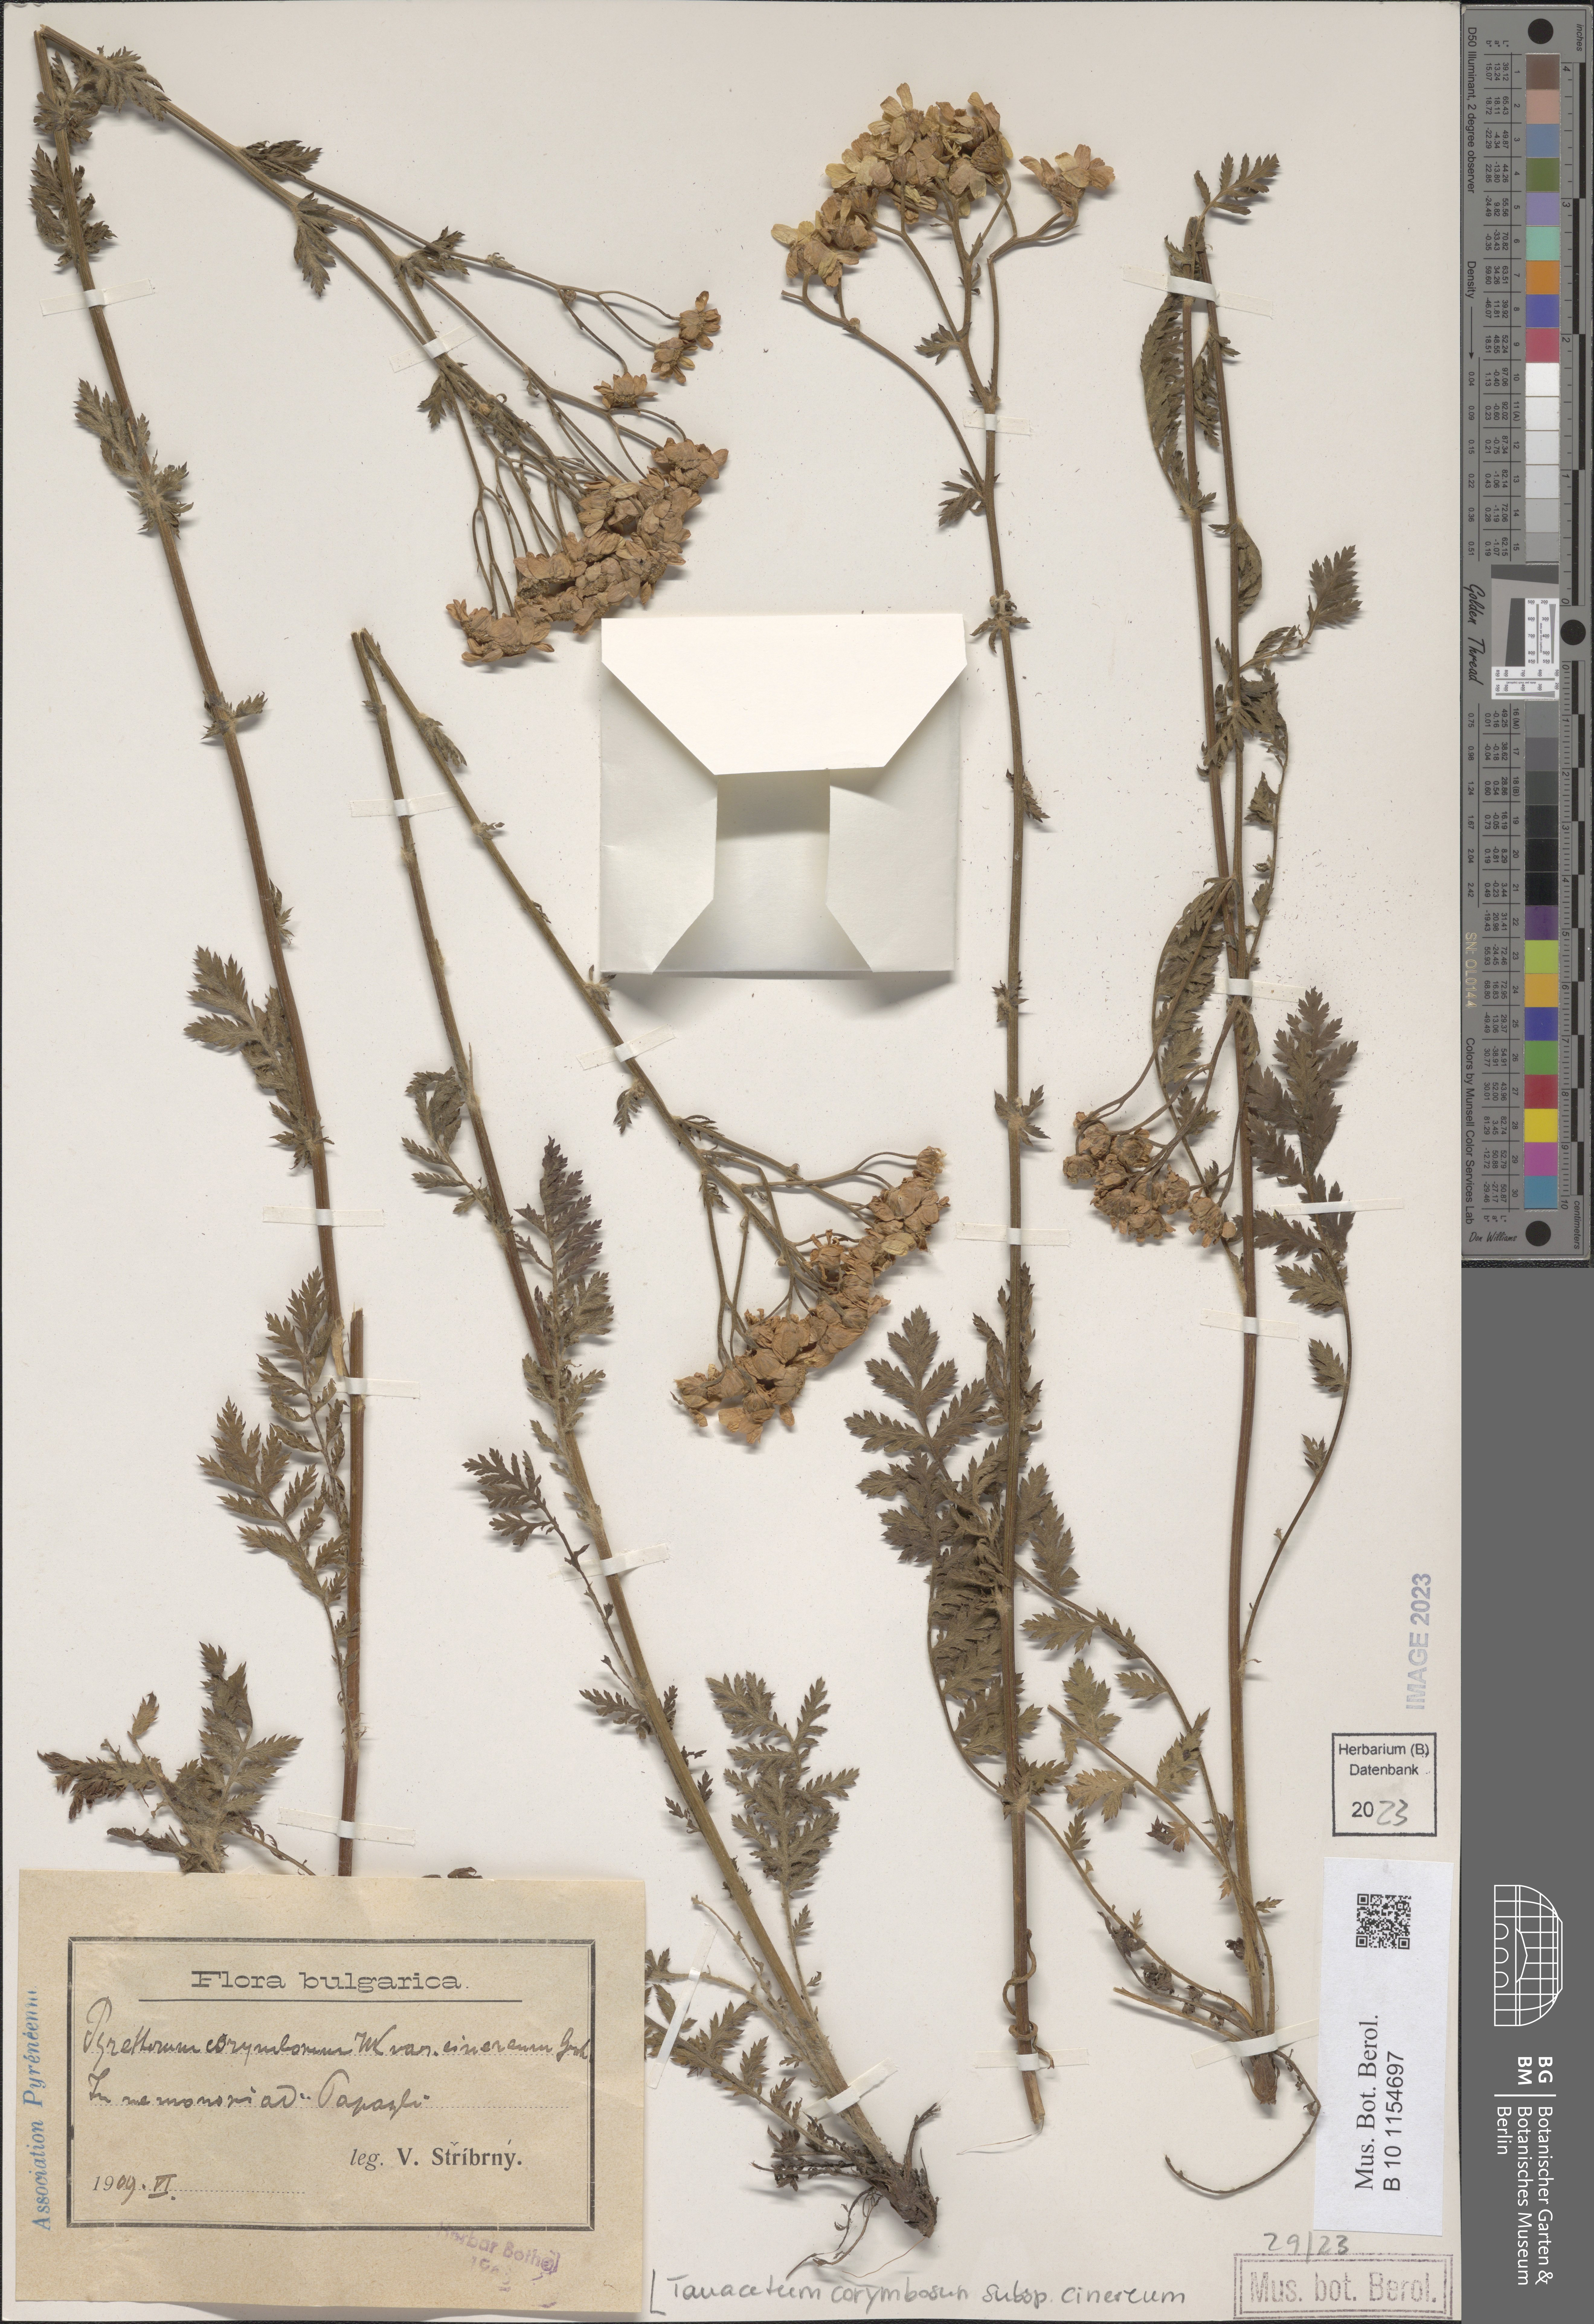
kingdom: Plantae
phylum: Tracheophyta
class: Magnoliopsida
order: Asterales
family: Asteraceae
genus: Tanacetum
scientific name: Tanacetum corymbosum
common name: Scentless feverfew
